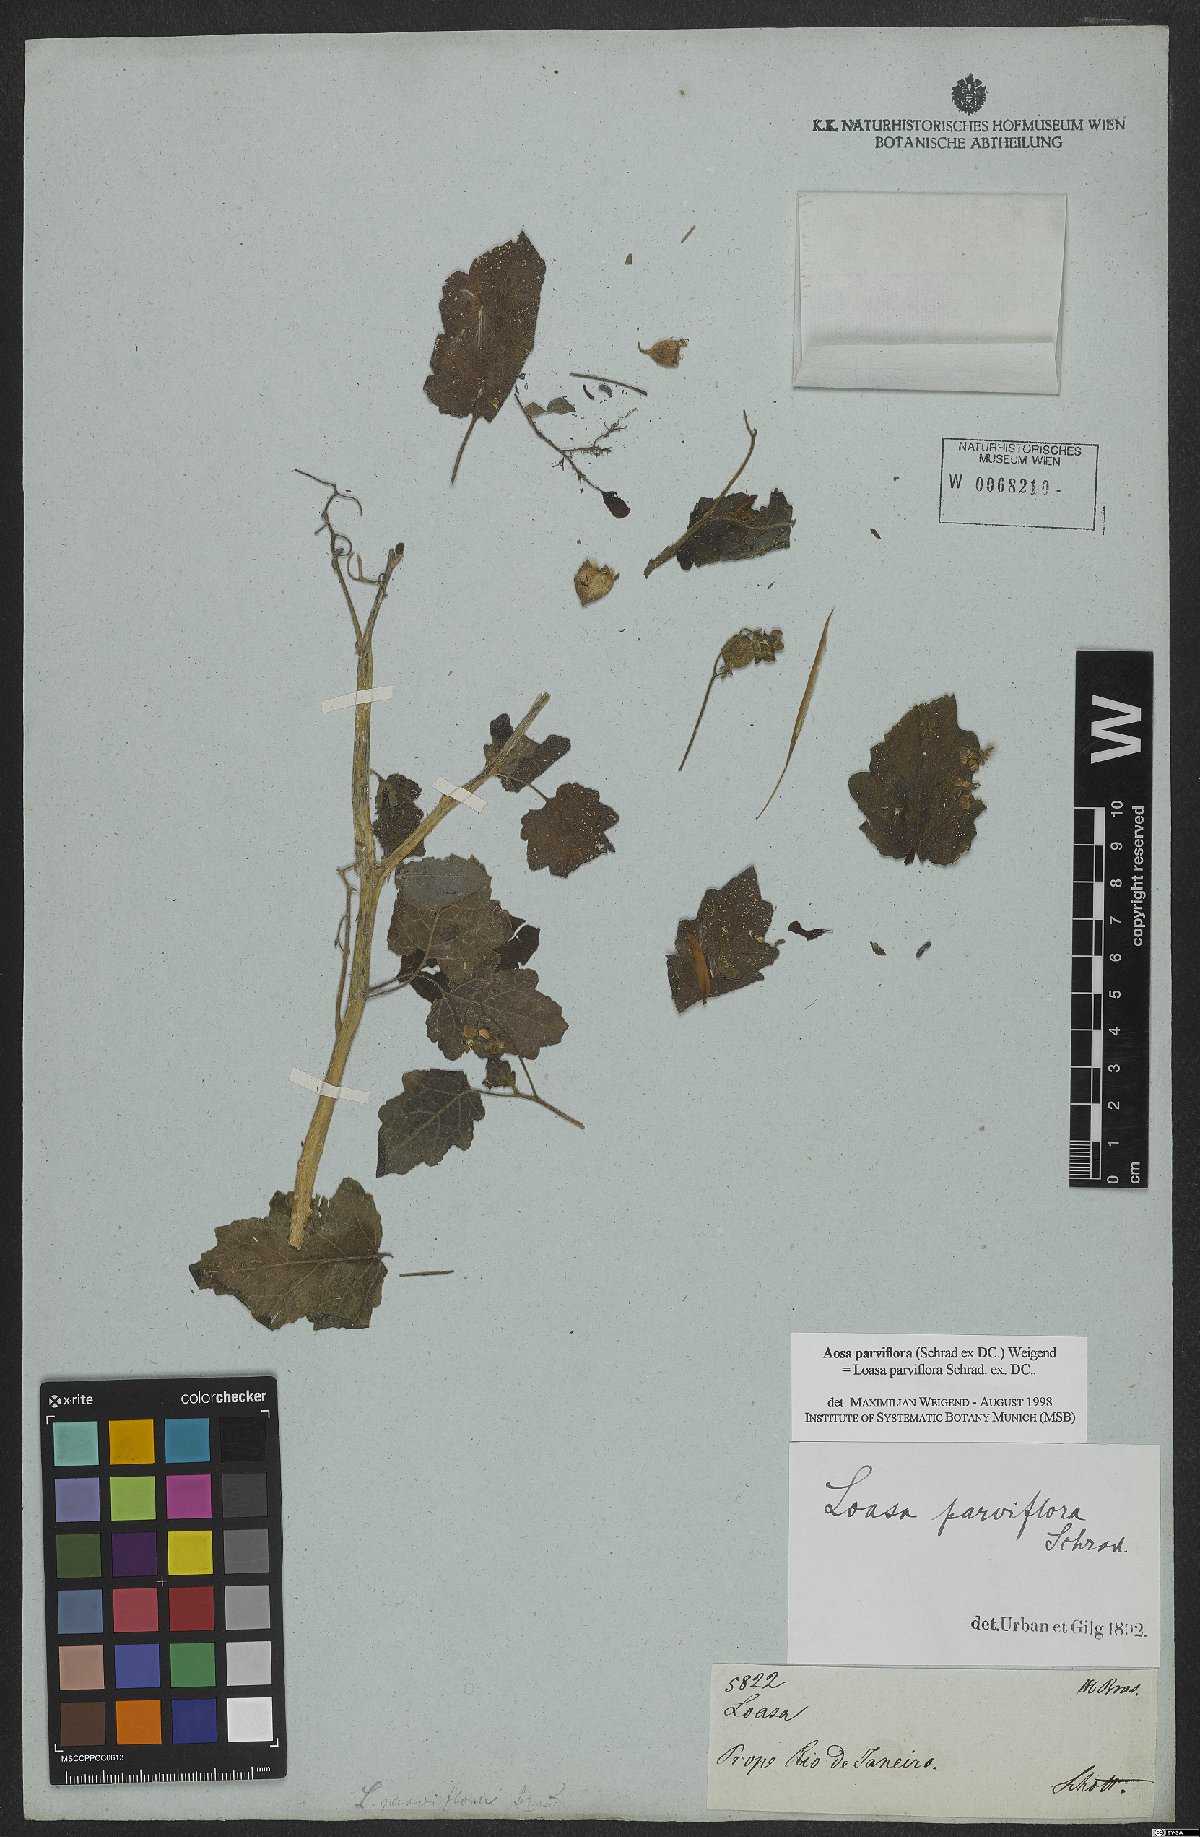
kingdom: Plantae
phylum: Tracheophyta
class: Magnoliopsida
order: Cornales
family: Loasaceae
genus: Aosa
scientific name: Aosa parviflora
